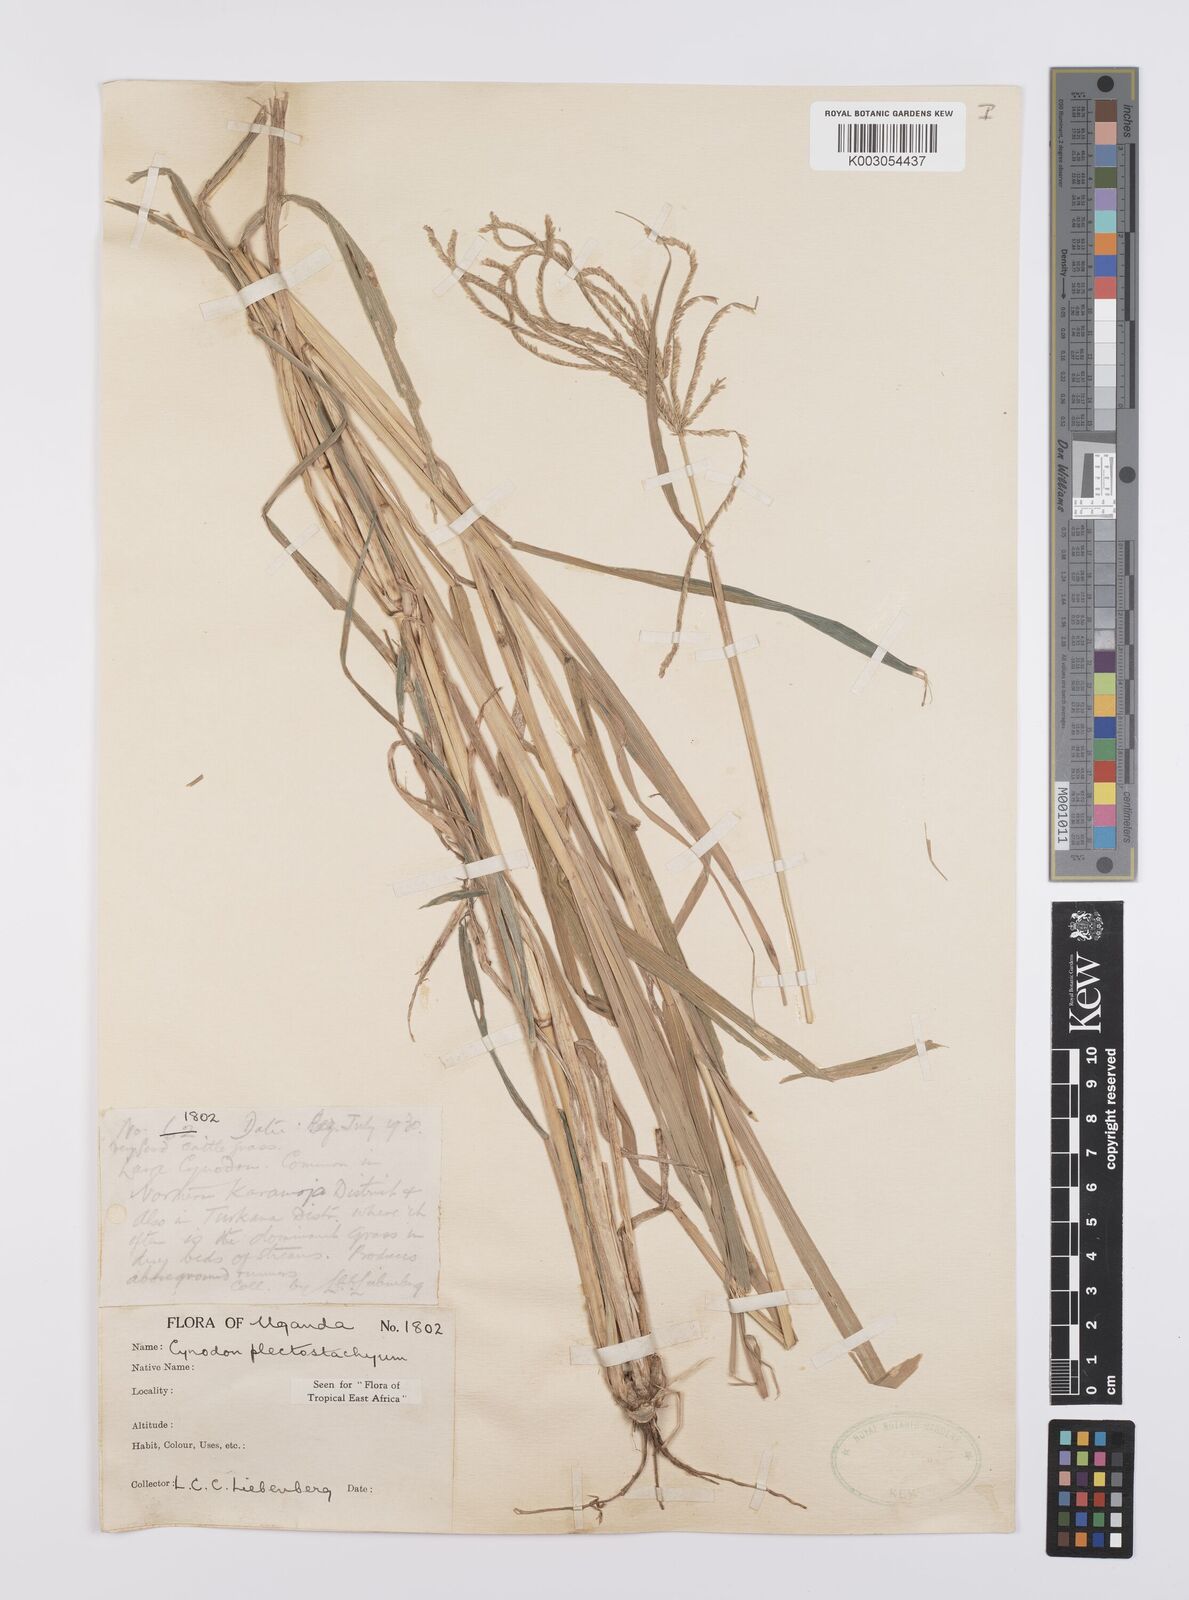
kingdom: Plantae
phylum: Tracheophyta
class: Liliopsida
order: Poales
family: Poaceae
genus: Cynodon
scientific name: Cynodon plectostachyus
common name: Stargrass
